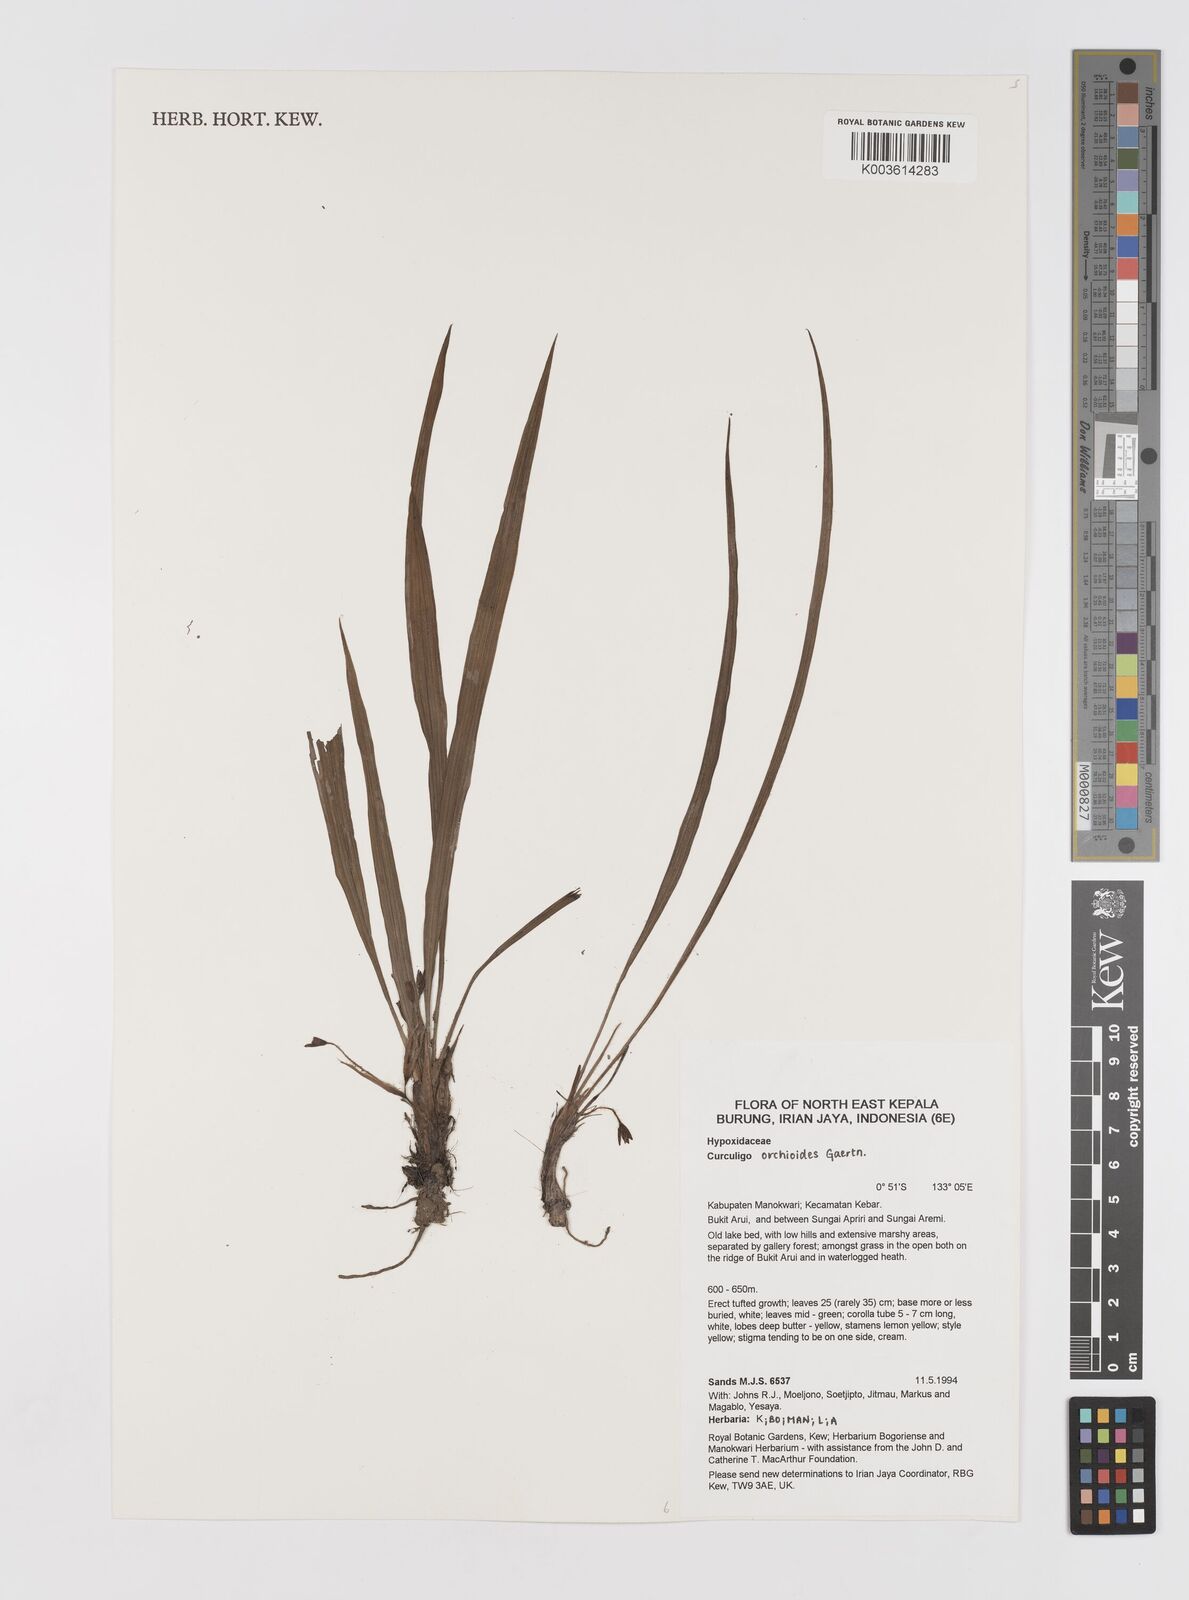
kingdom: Plantae
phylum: Tracheophyta
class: Liliopsida
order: Asparagales
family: Hypoxidaceae
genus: Curculigo
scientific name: Curculigo orchioides
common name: Golden eye-grass
